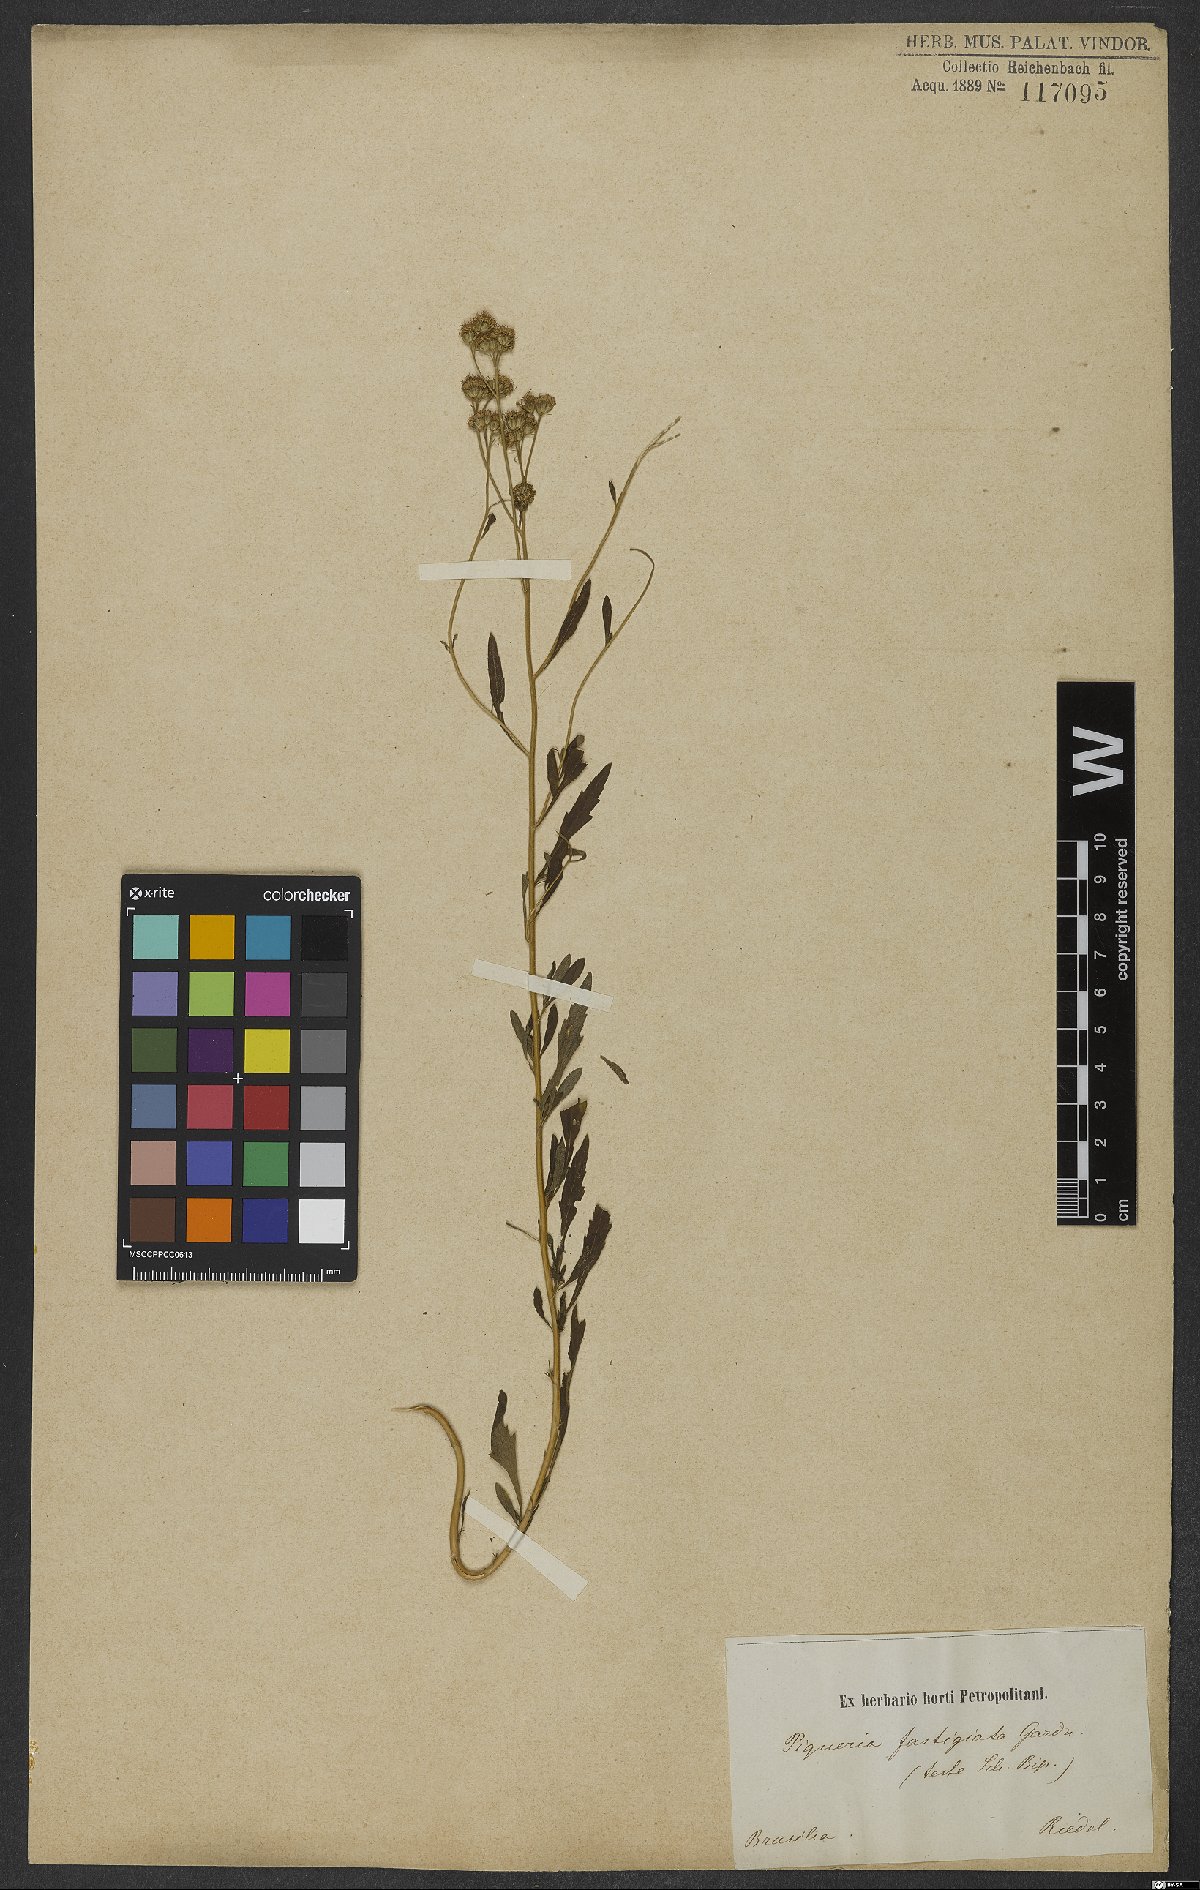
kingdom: Plantae
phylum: Tracheophyta
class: Magnoliopsida
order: Asterales
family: Asteraceae
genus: Ageratum
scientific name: Ageratum fastigiatum
